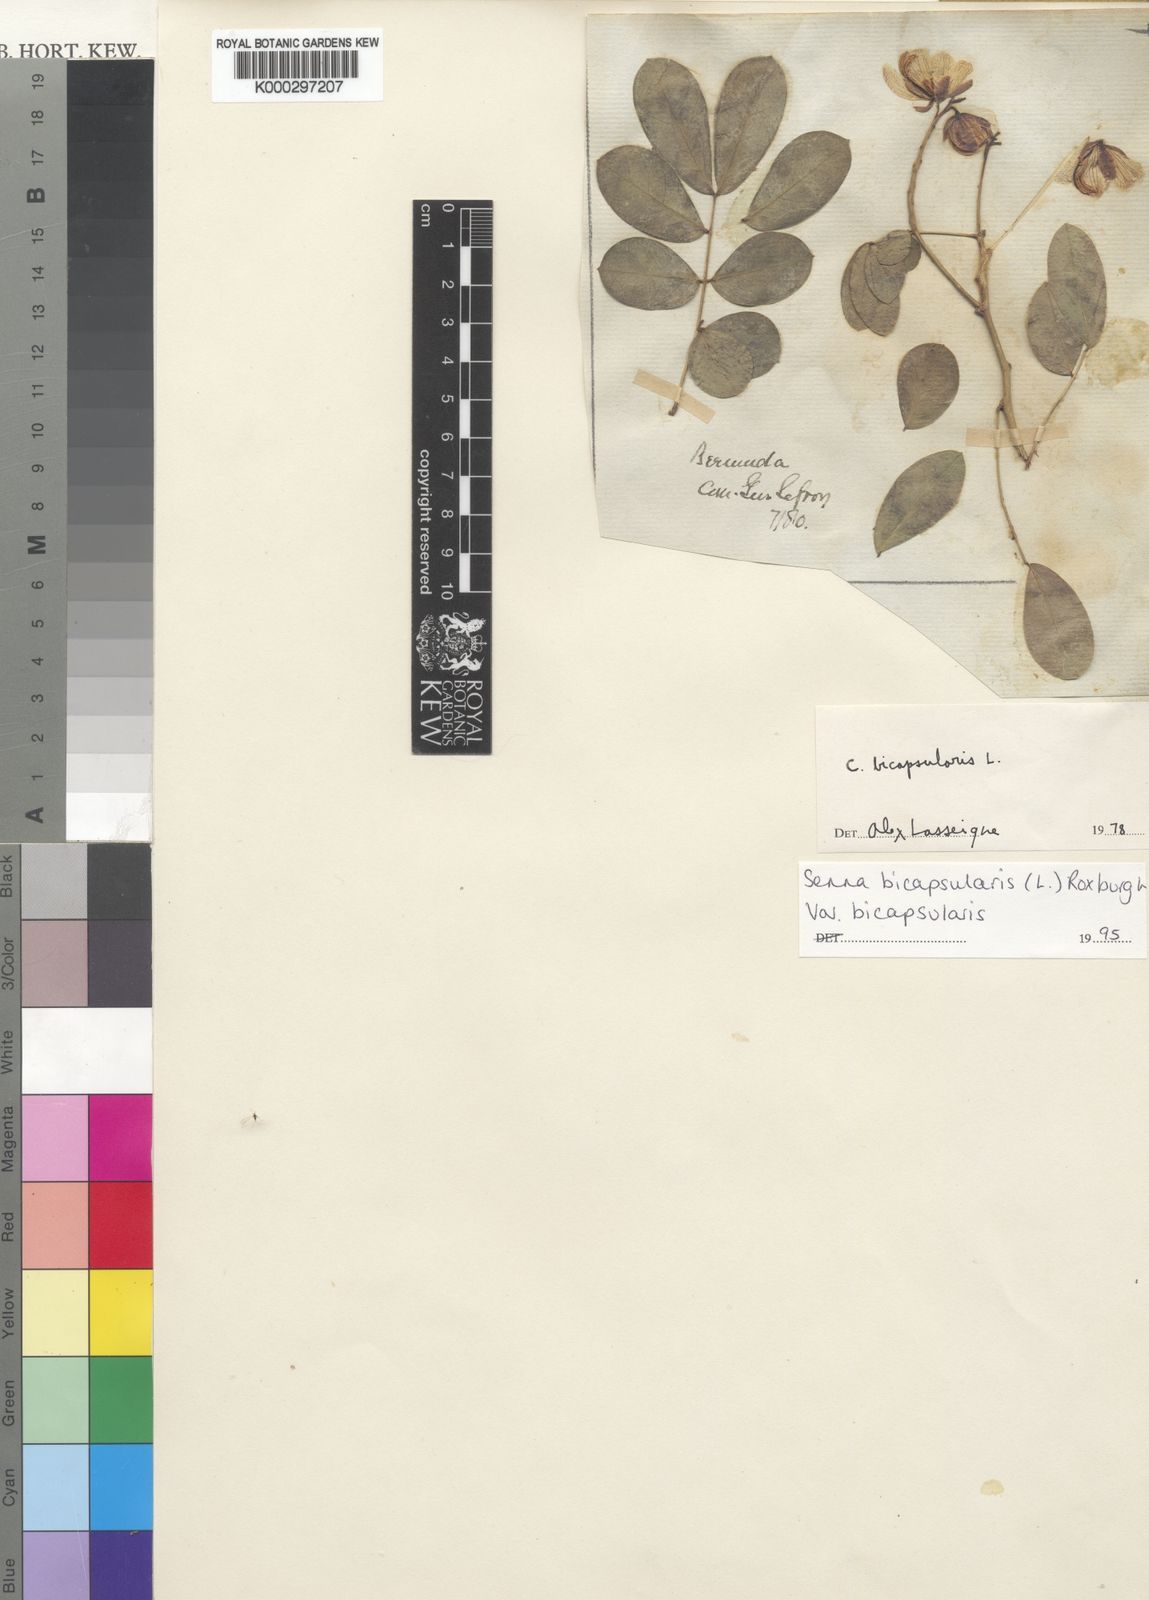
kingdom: Plantae
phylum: Tracheophyta
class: Magnoliopsida
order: Fabales
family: Fabaceae
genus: Senna
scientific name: Senna bicapsularis
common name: Christmasbush
